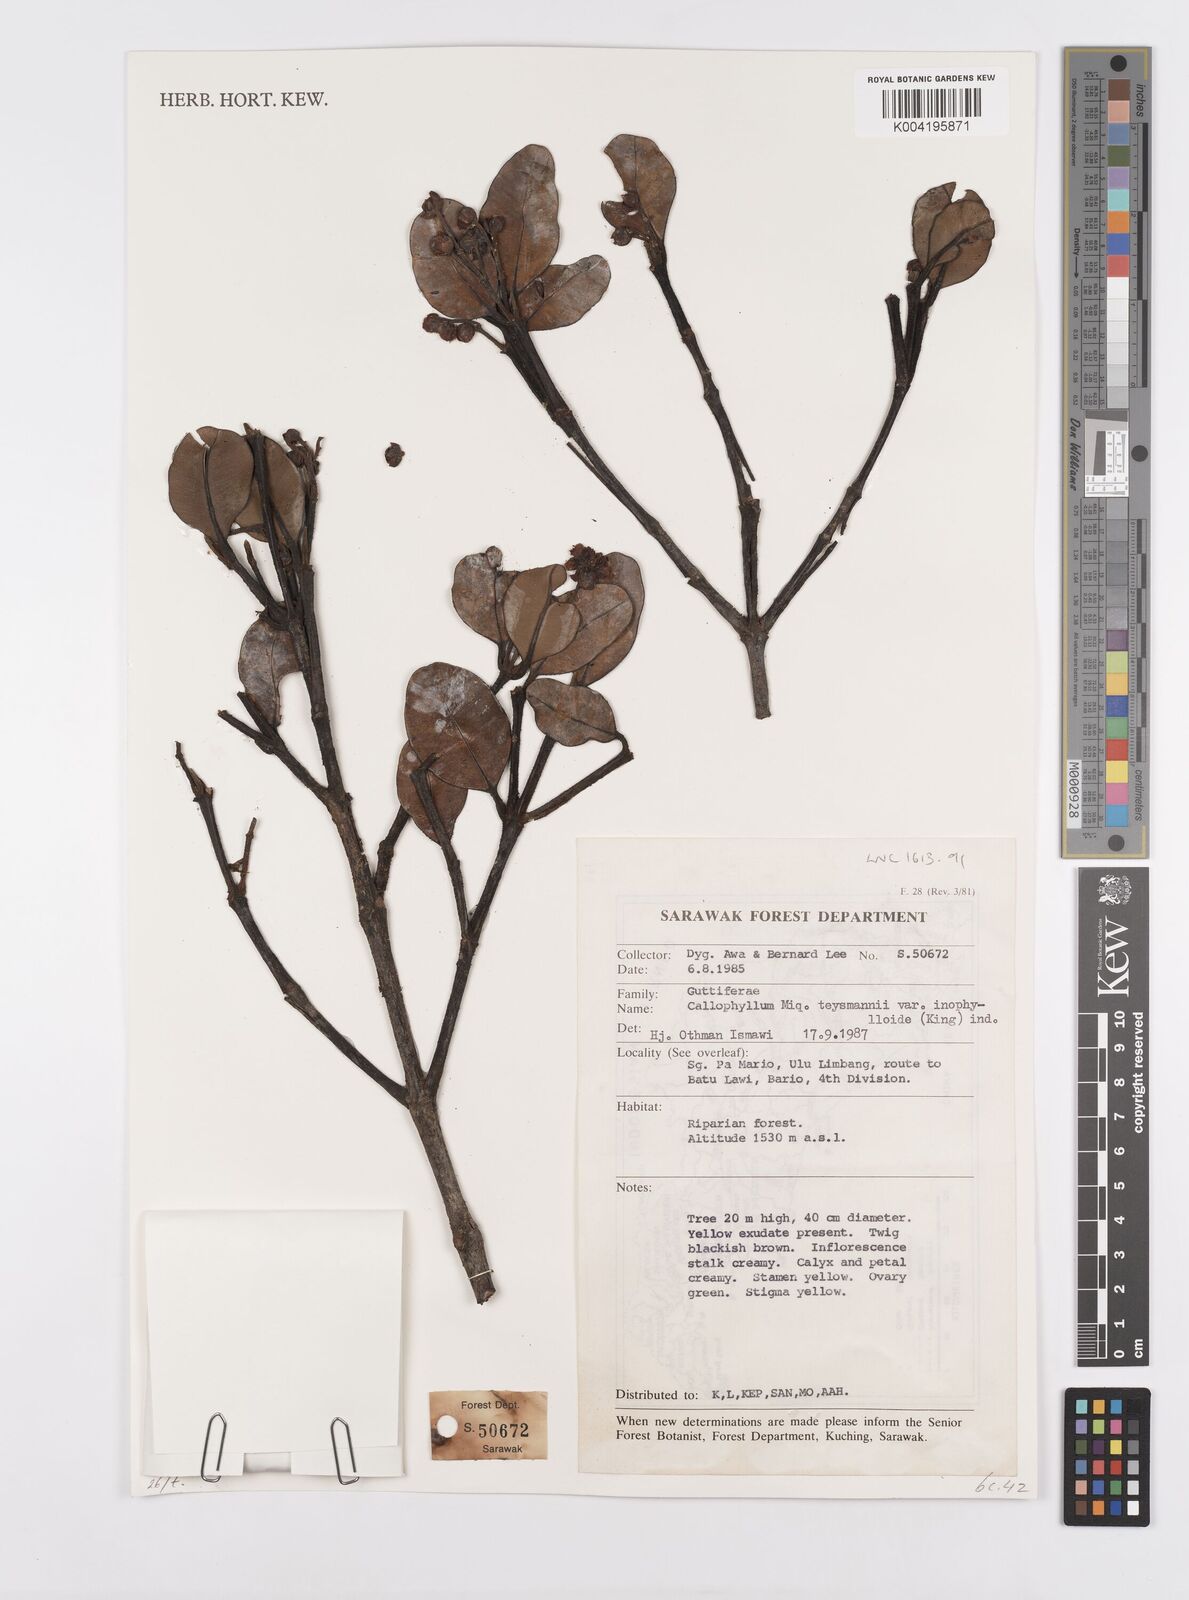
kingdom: Plantae
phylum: Tracheophyta
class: Magnoliopsida
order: Malpighiales
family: Calophyllaceae
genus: Calophyllum
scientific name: Calophyllum teysmannii
